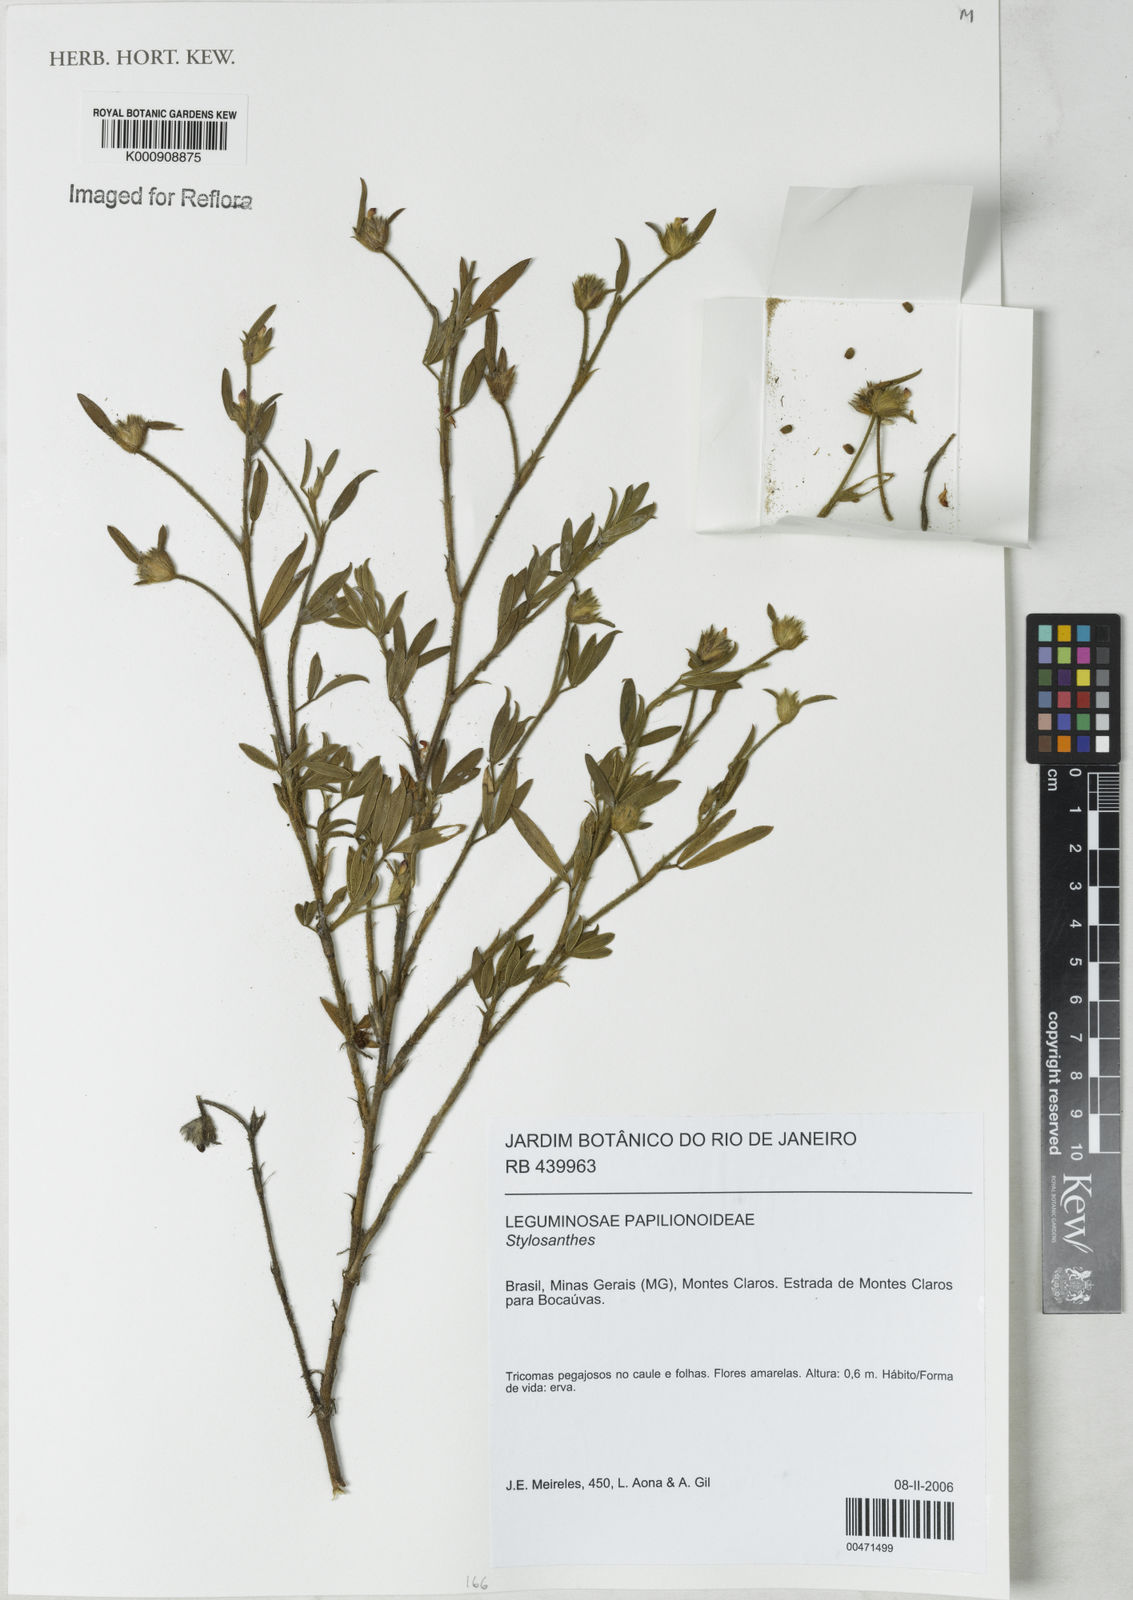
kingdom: Plantae
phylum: Tracheophyta
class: Magnoliopsida
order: Fabales
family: Fabaceae
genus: Stylosanthes
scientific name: Stylosanthes
